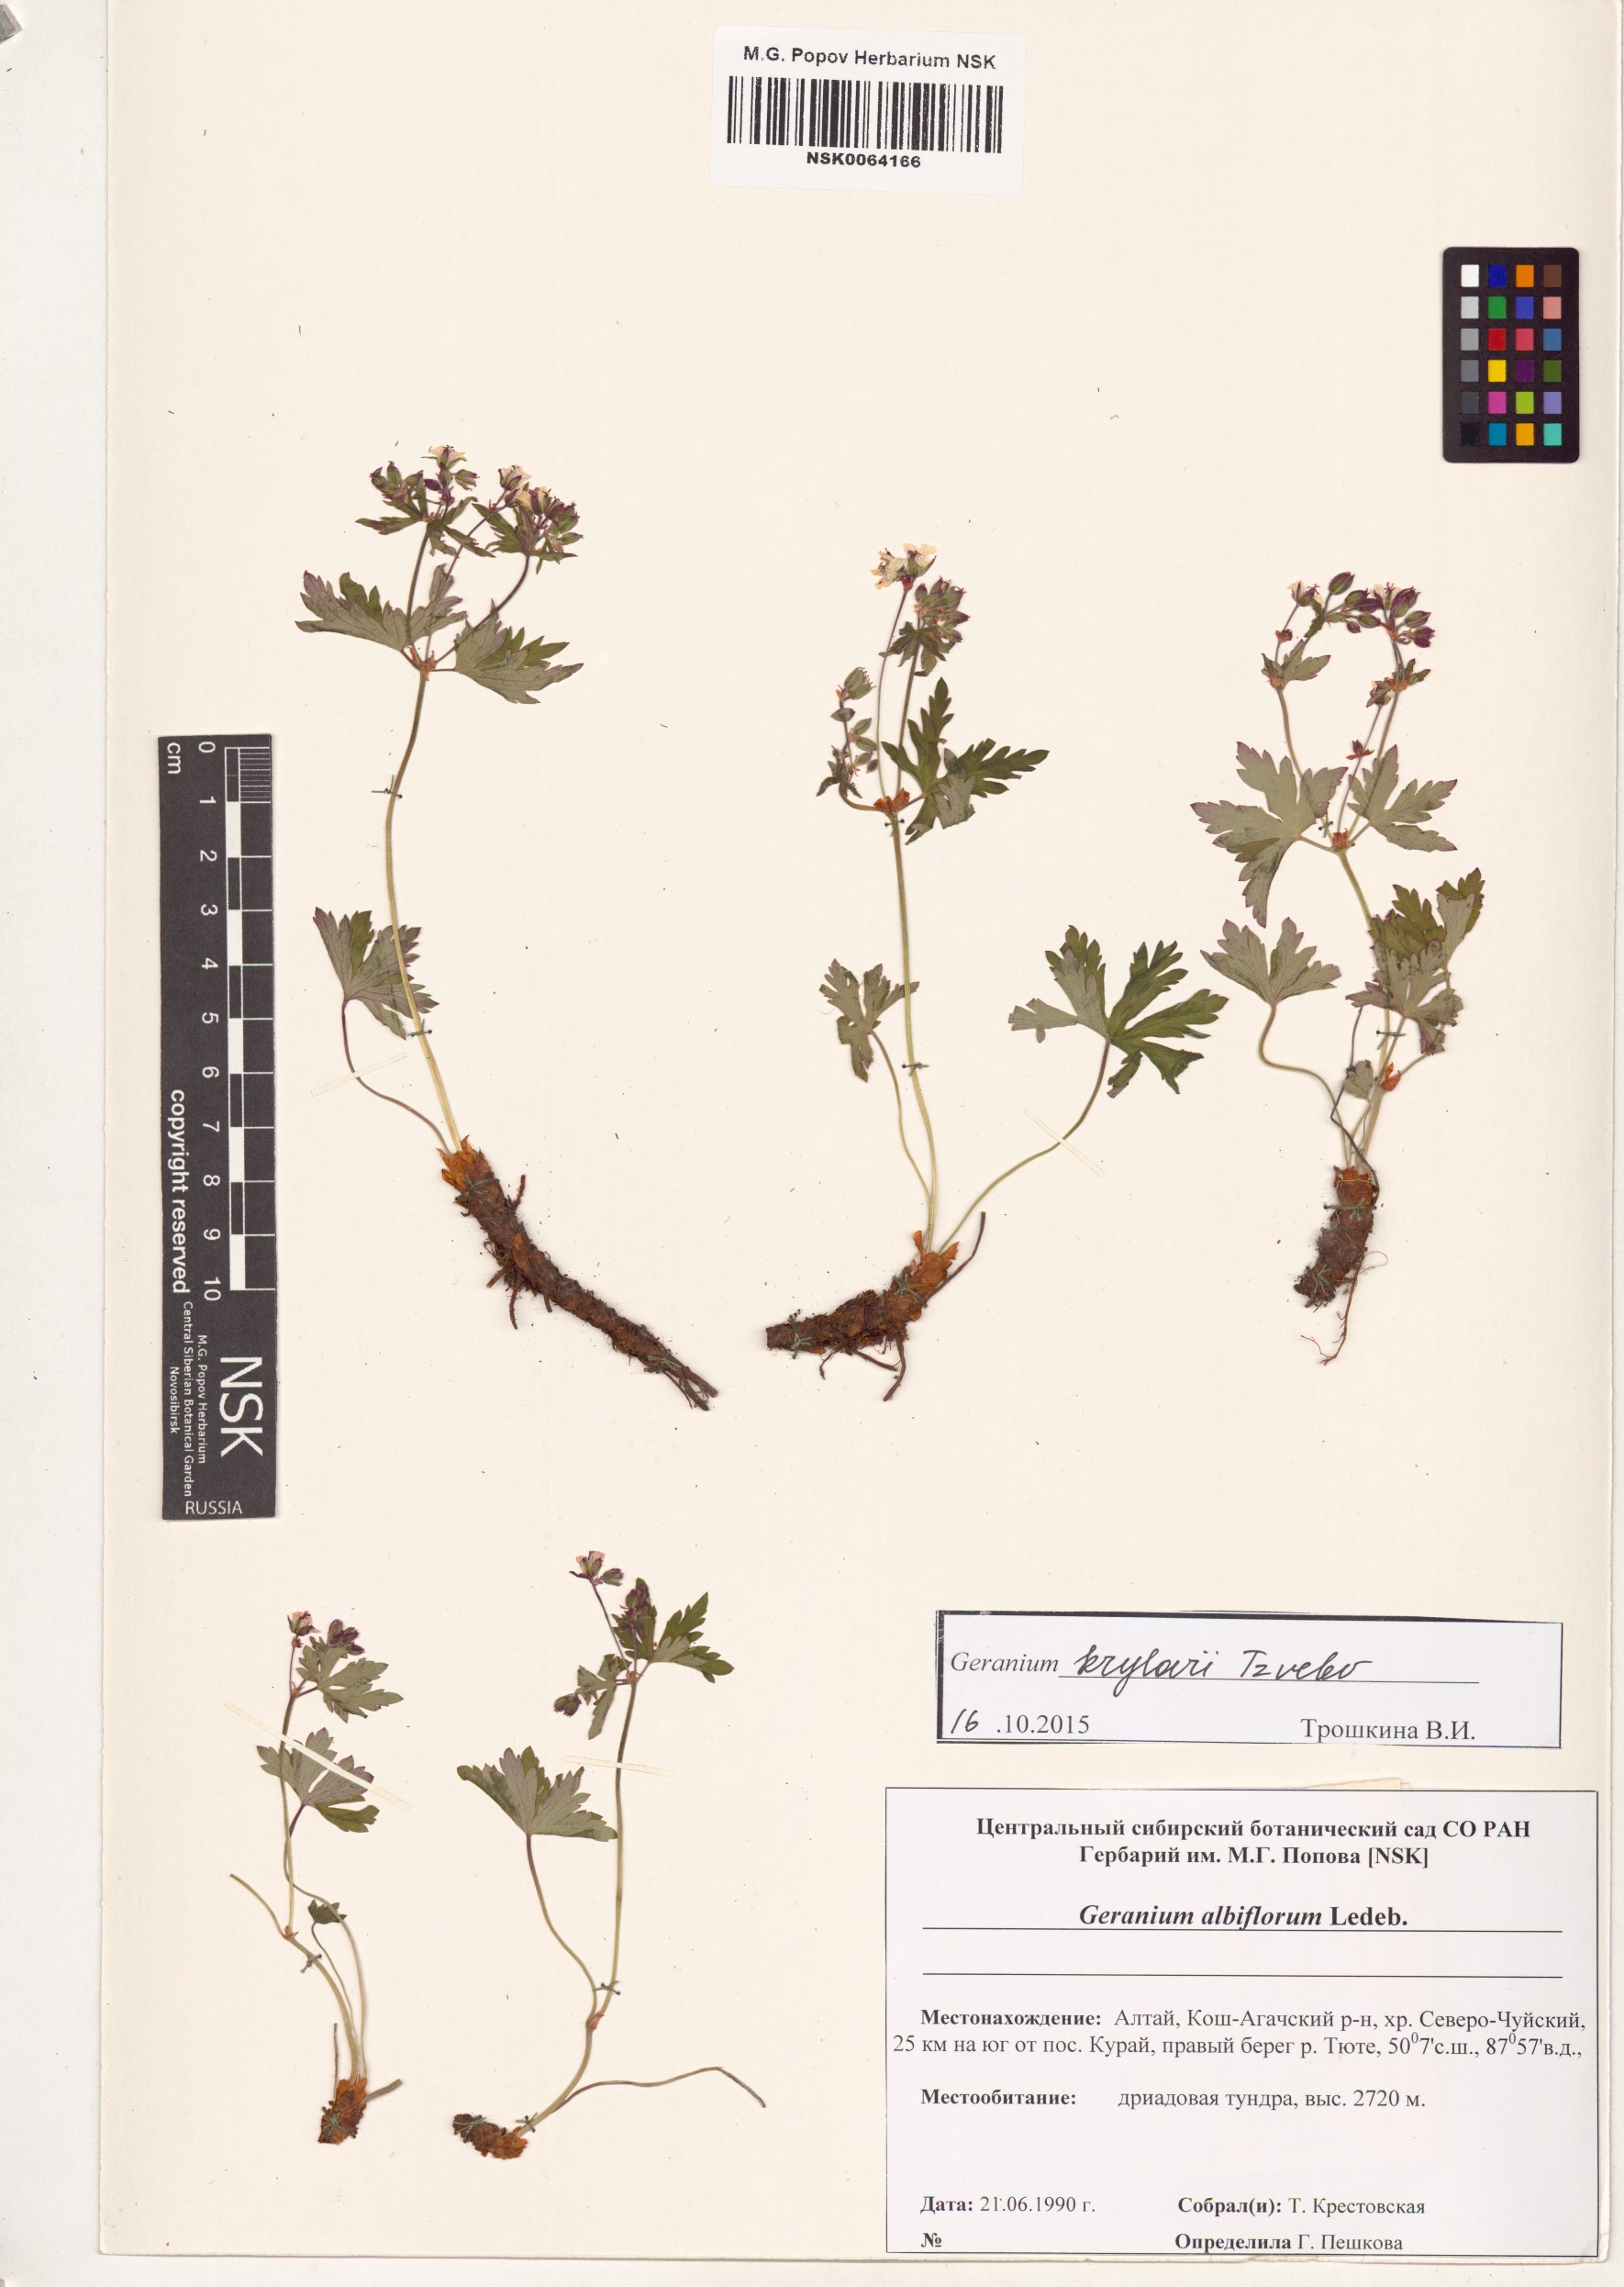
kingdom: Plantae
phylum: Tracheophyta
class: Magnoliopsida
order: Geraniales
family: Geraniaceae
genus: Geranium
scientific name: Geranium sylvaticum
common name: Wood crane's-bill
